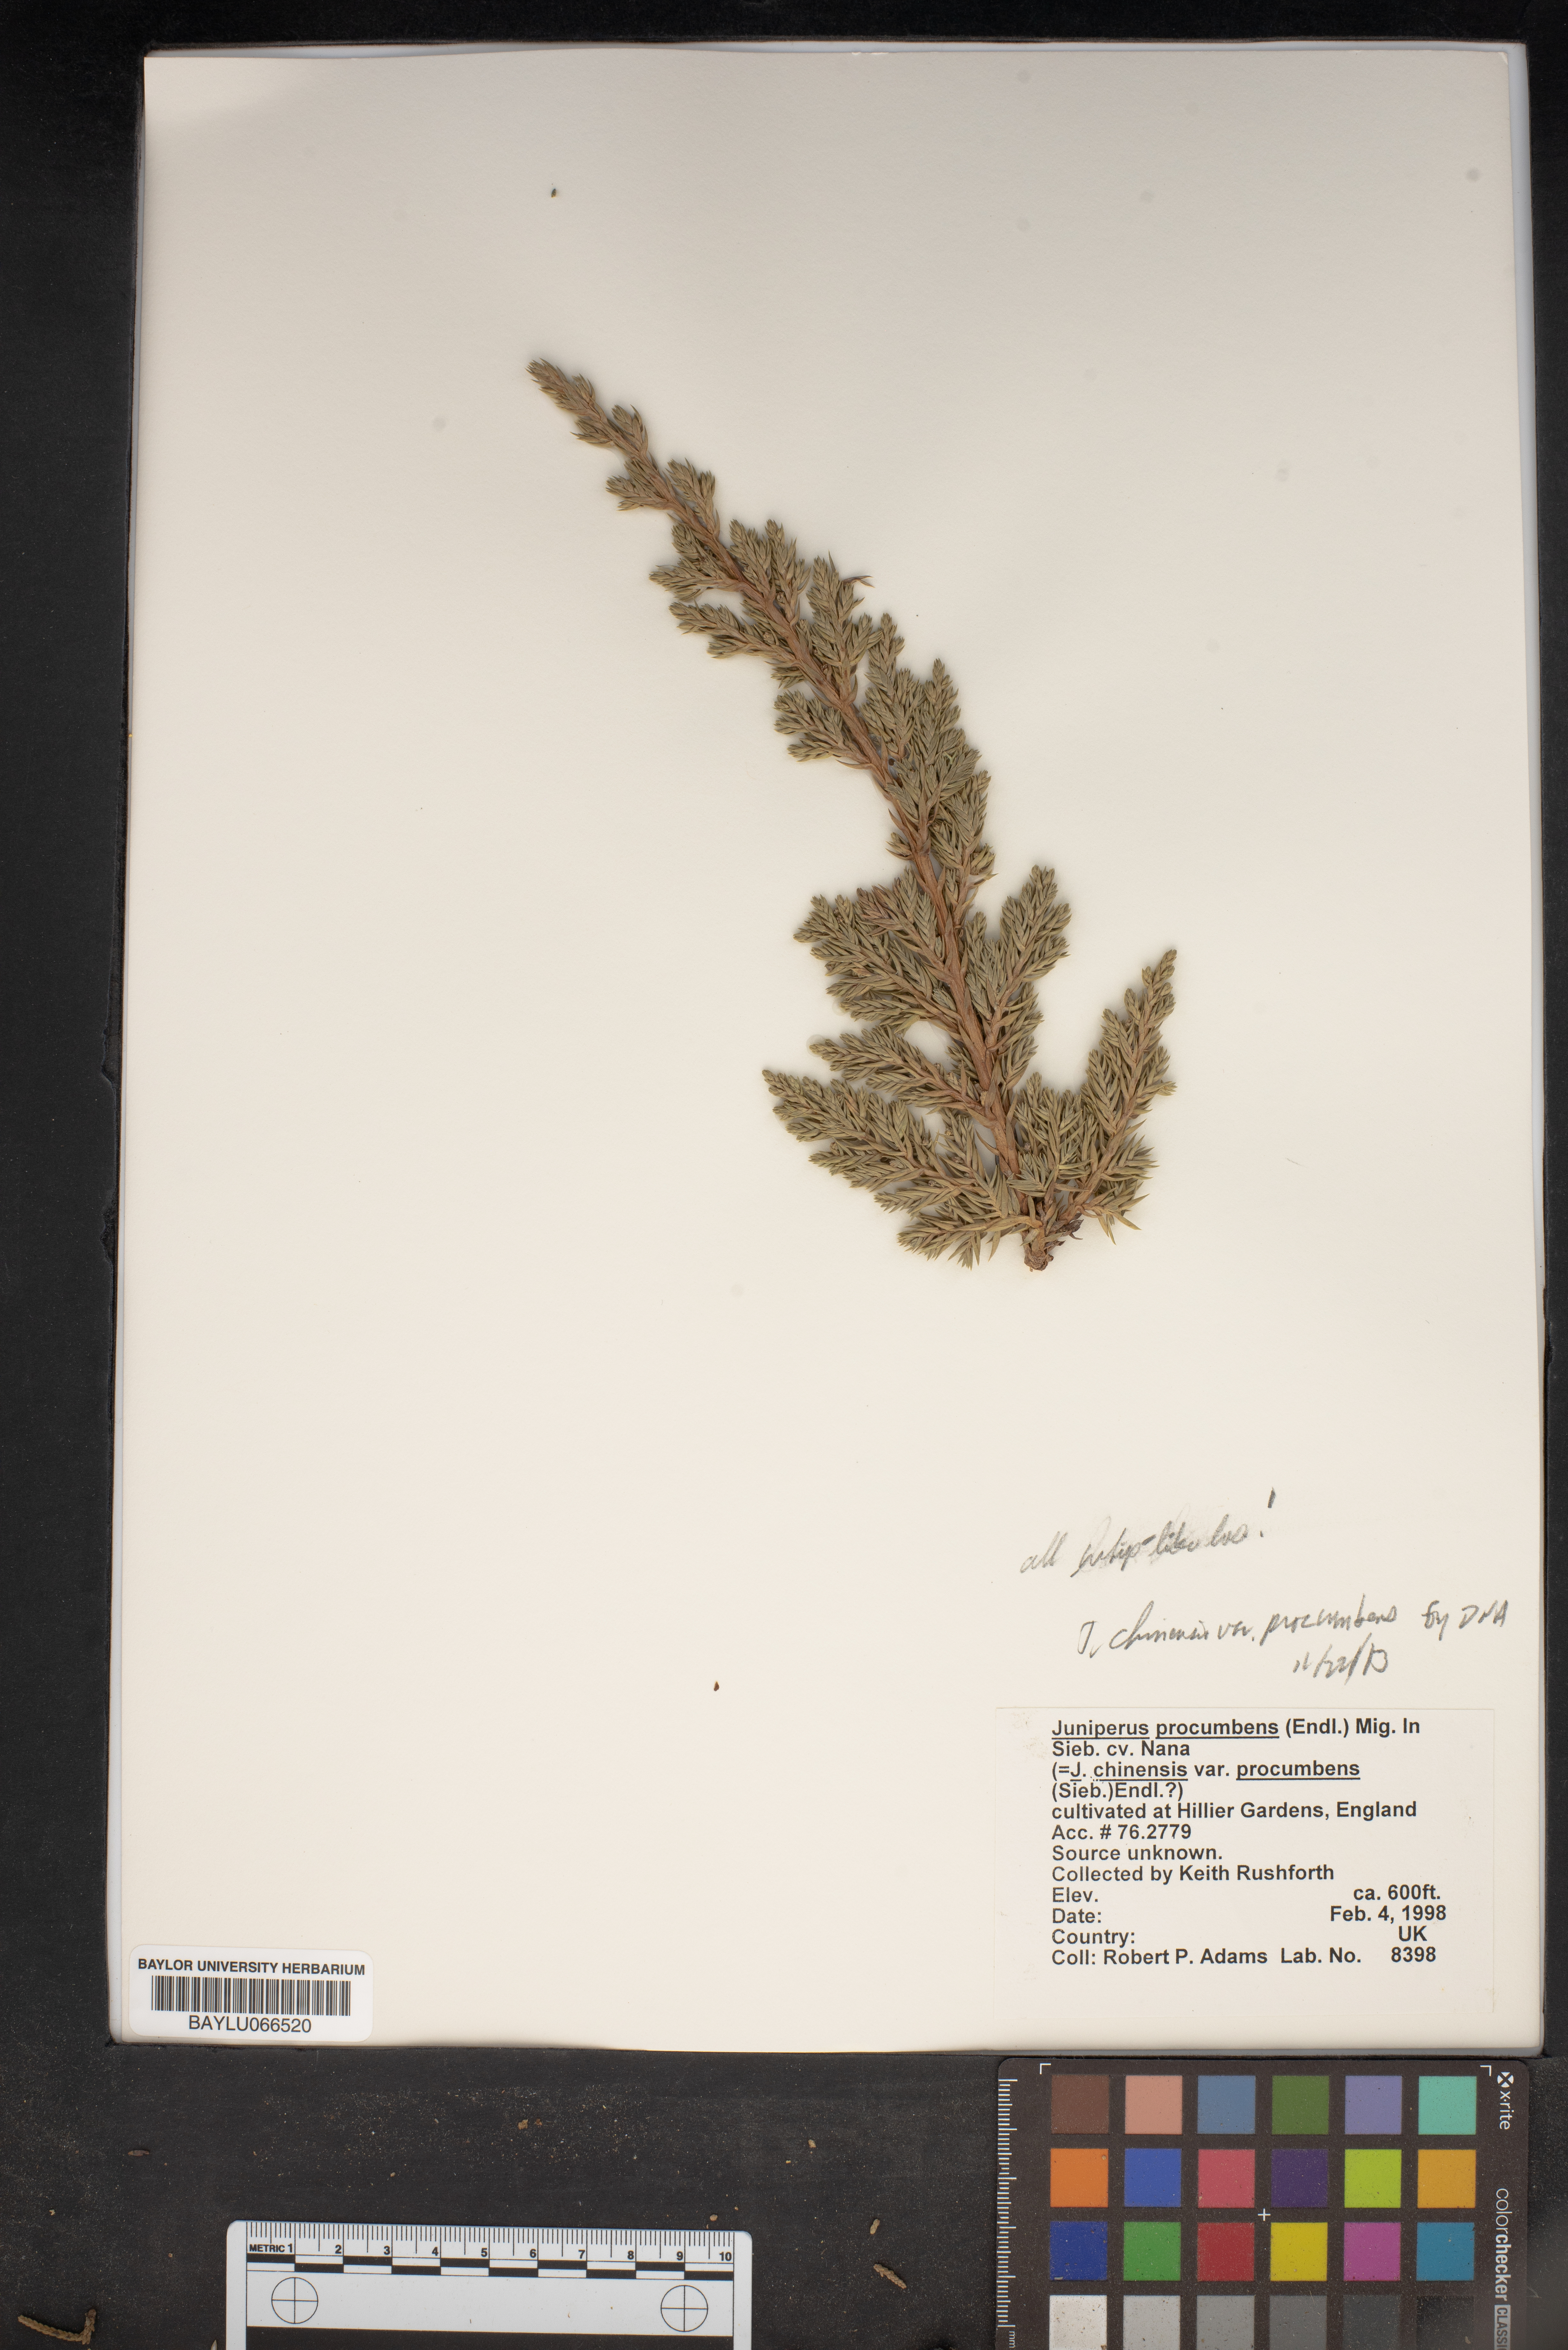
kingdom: Plantae
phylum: Tracheophyta
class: Pinopsida
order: Pinales
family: Cupressaceae
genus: Juniperus
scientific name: Juniperus recurva
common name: Drooping juniper
